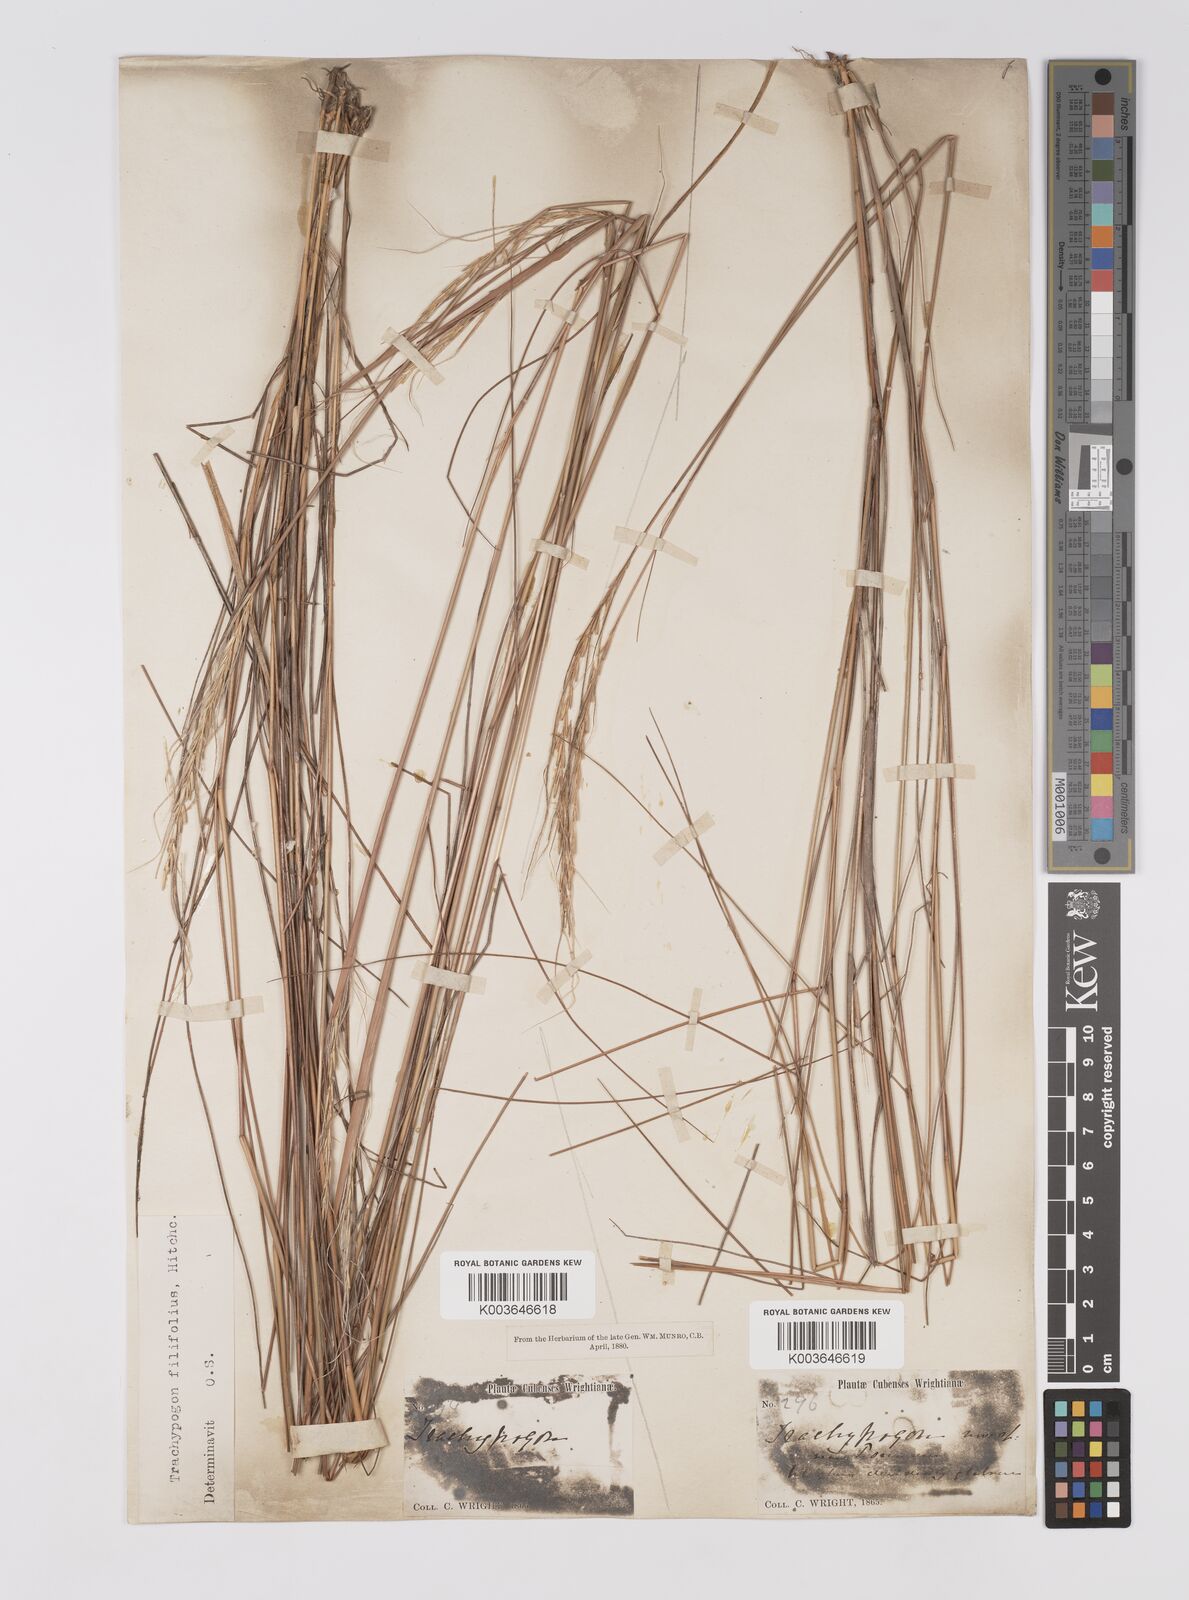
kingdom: Plantae
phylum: Tracheophyta
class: Liliopsida
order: Poales
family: Poaceae
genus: Trachypogon
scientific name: Trachypogon macroglossus
